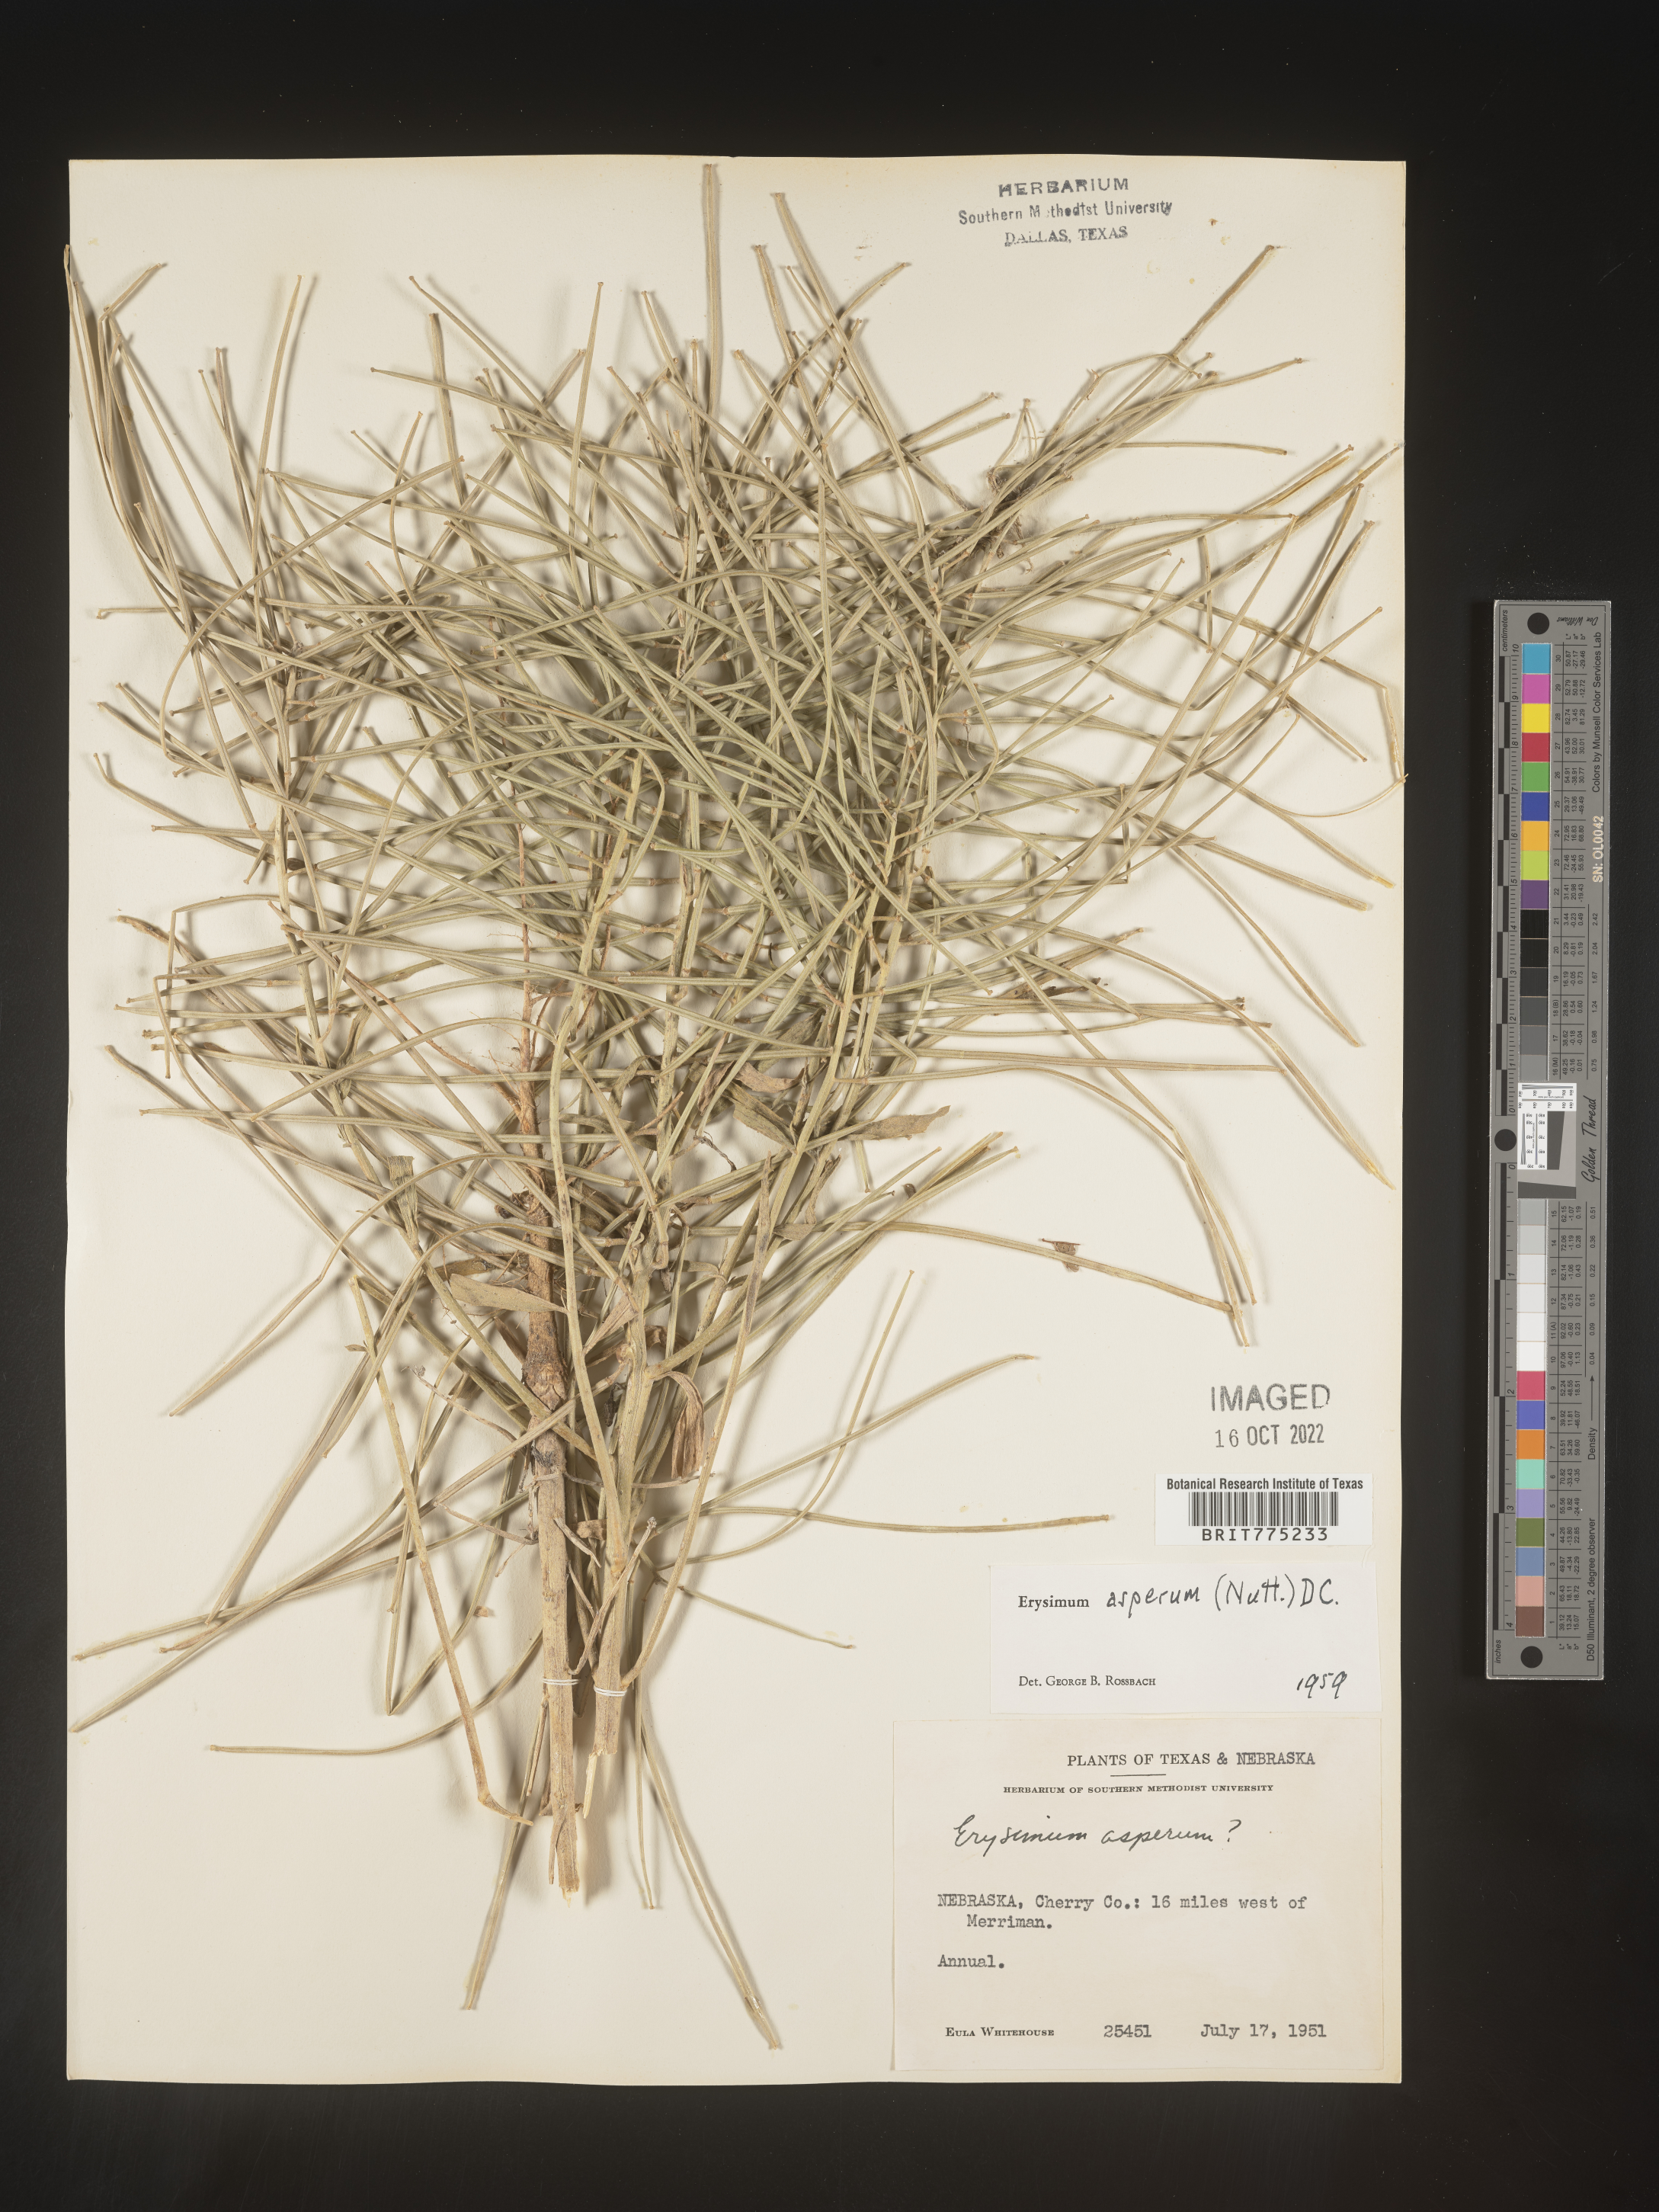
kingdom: Plantae
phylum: Tracheophyta
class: Magnoliopsida
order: Brassicales
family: Brassicaceae
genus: Erysimum
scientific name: Erysimum capitatum
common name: Western wallflower
